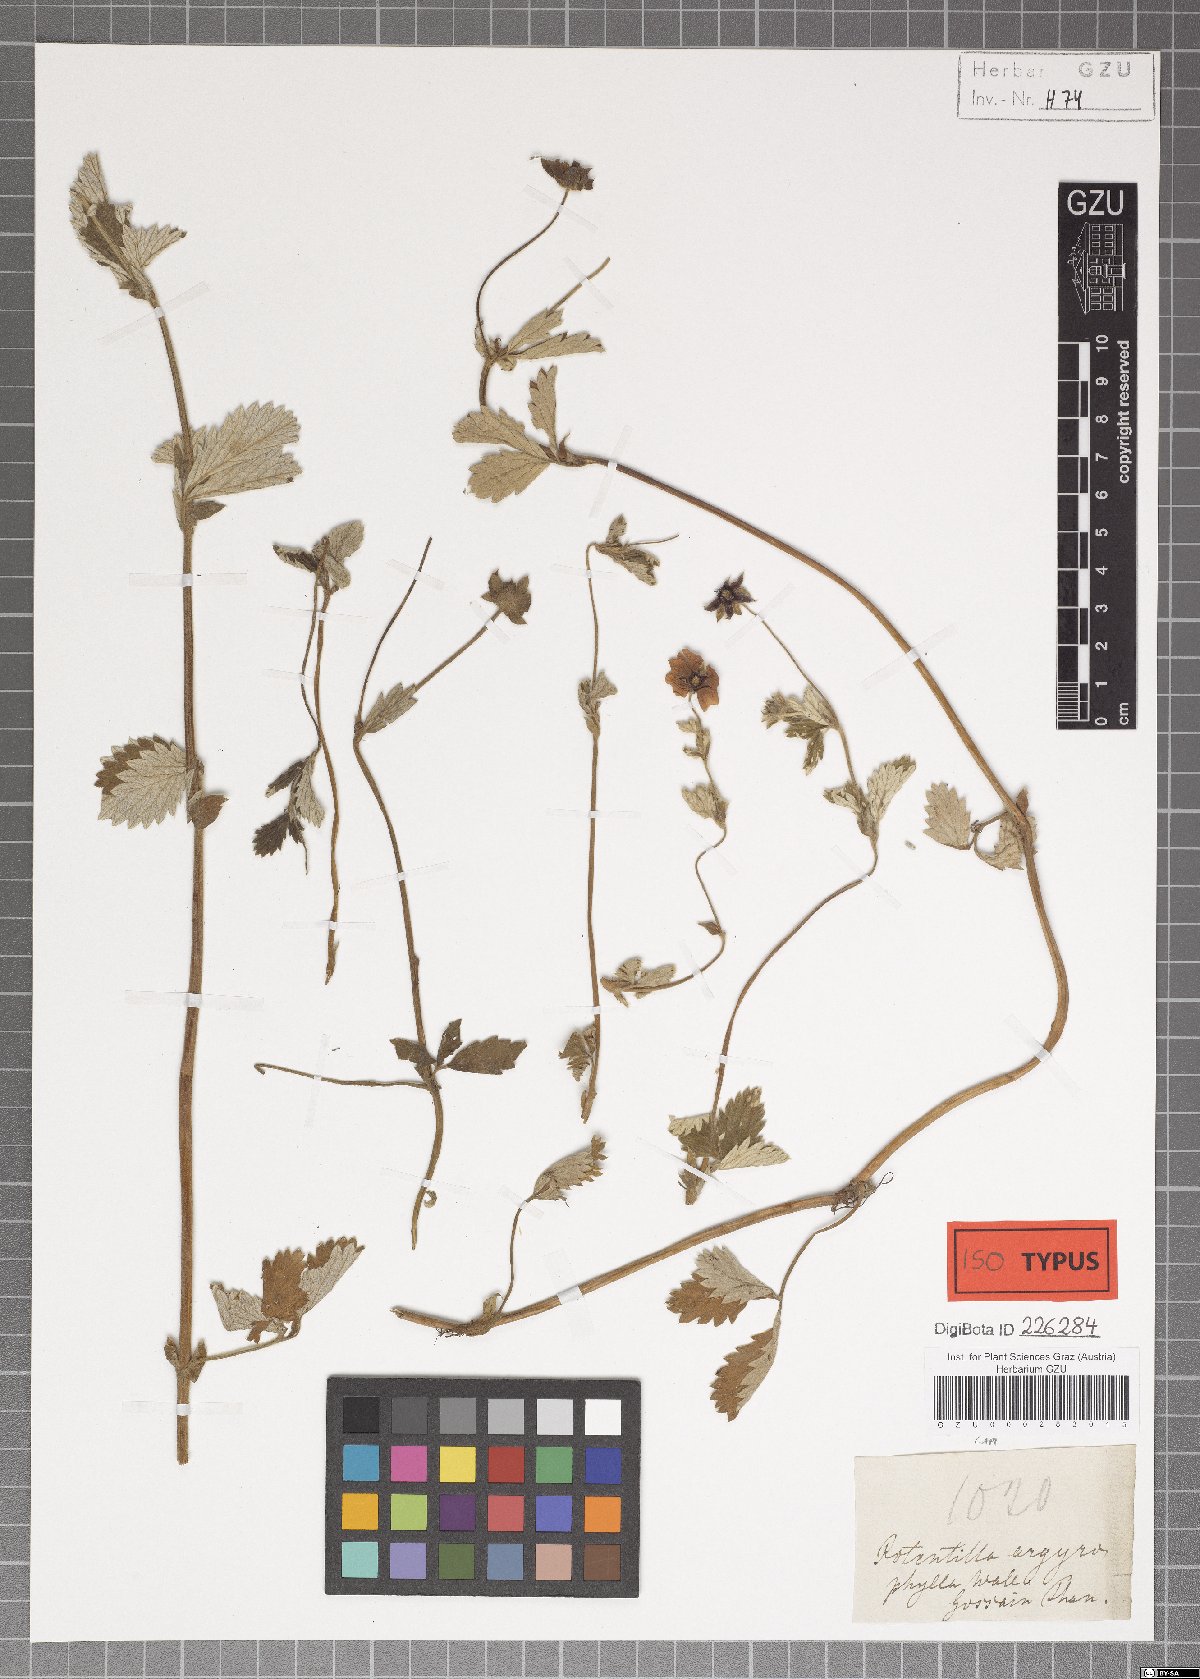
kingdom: Plantae
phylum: Tracheophyta
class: Magnoliopsida
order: Rosales
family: Rosaceae
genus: Potentilla
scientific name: Potentilla argyrophylla
